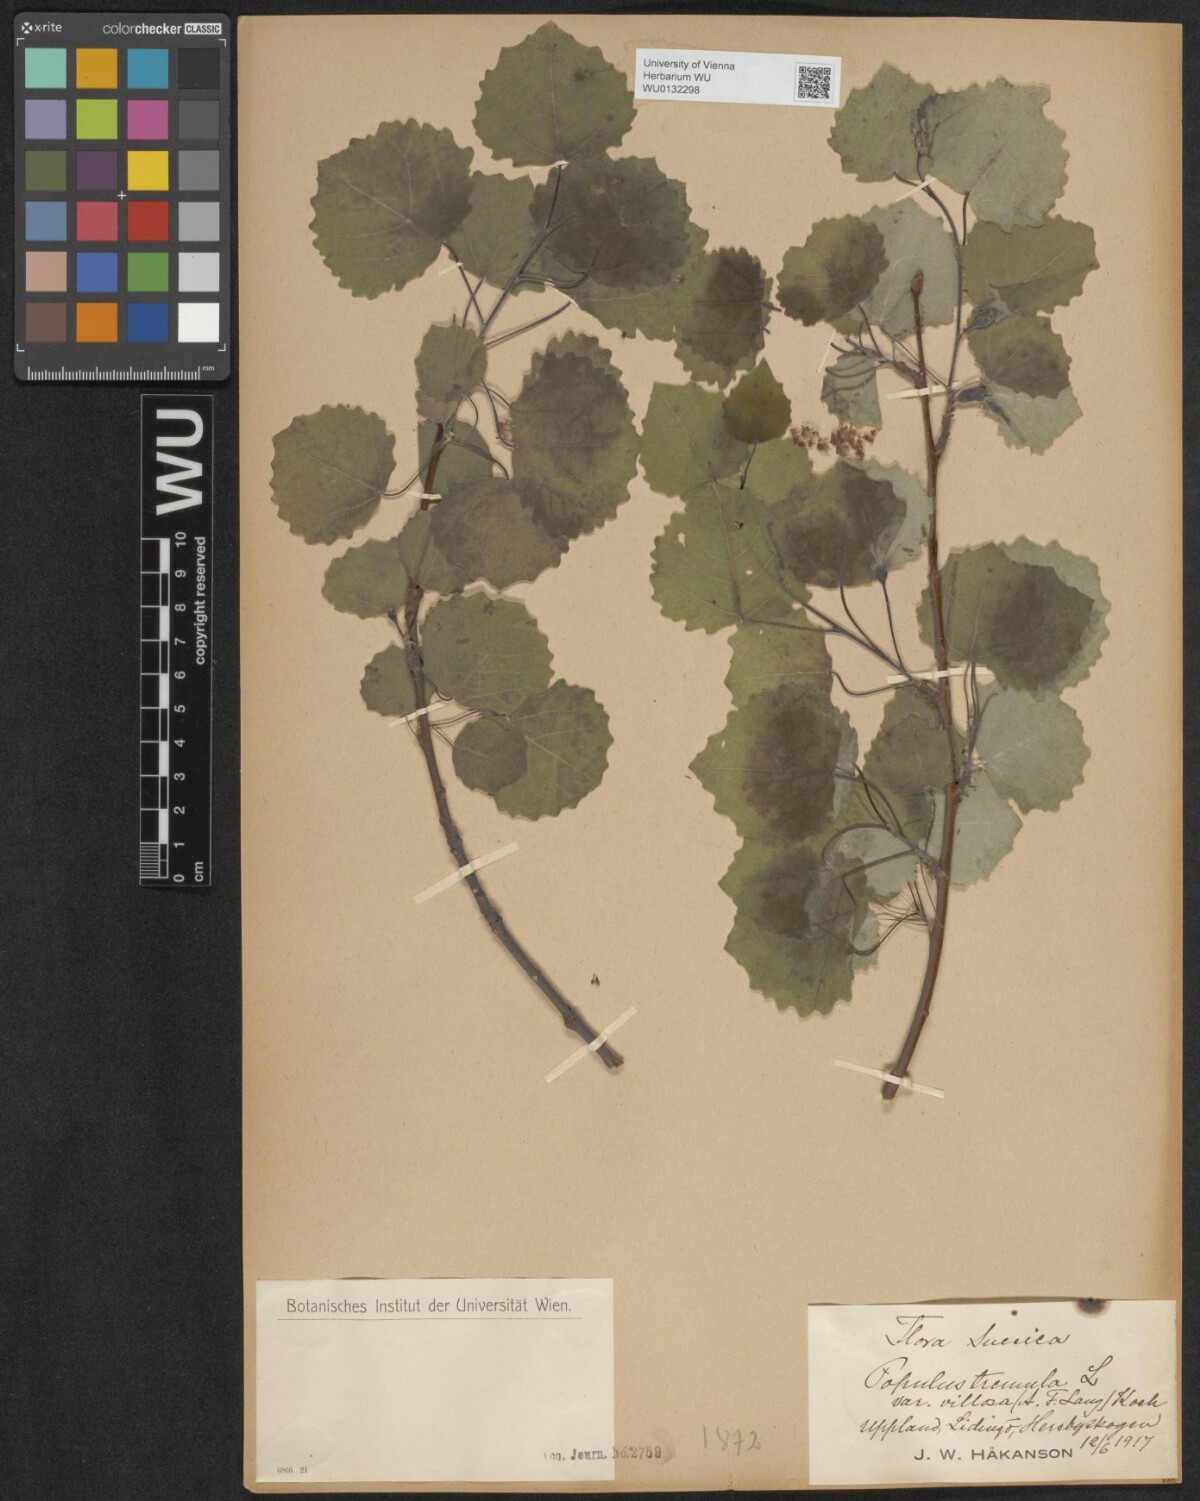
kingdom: Plantae
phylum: Tracheophyta
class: Magnoliopsida
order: Malpighiales
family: Salicaceae
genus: Populus
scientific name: Populus tremula
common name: European aspen
